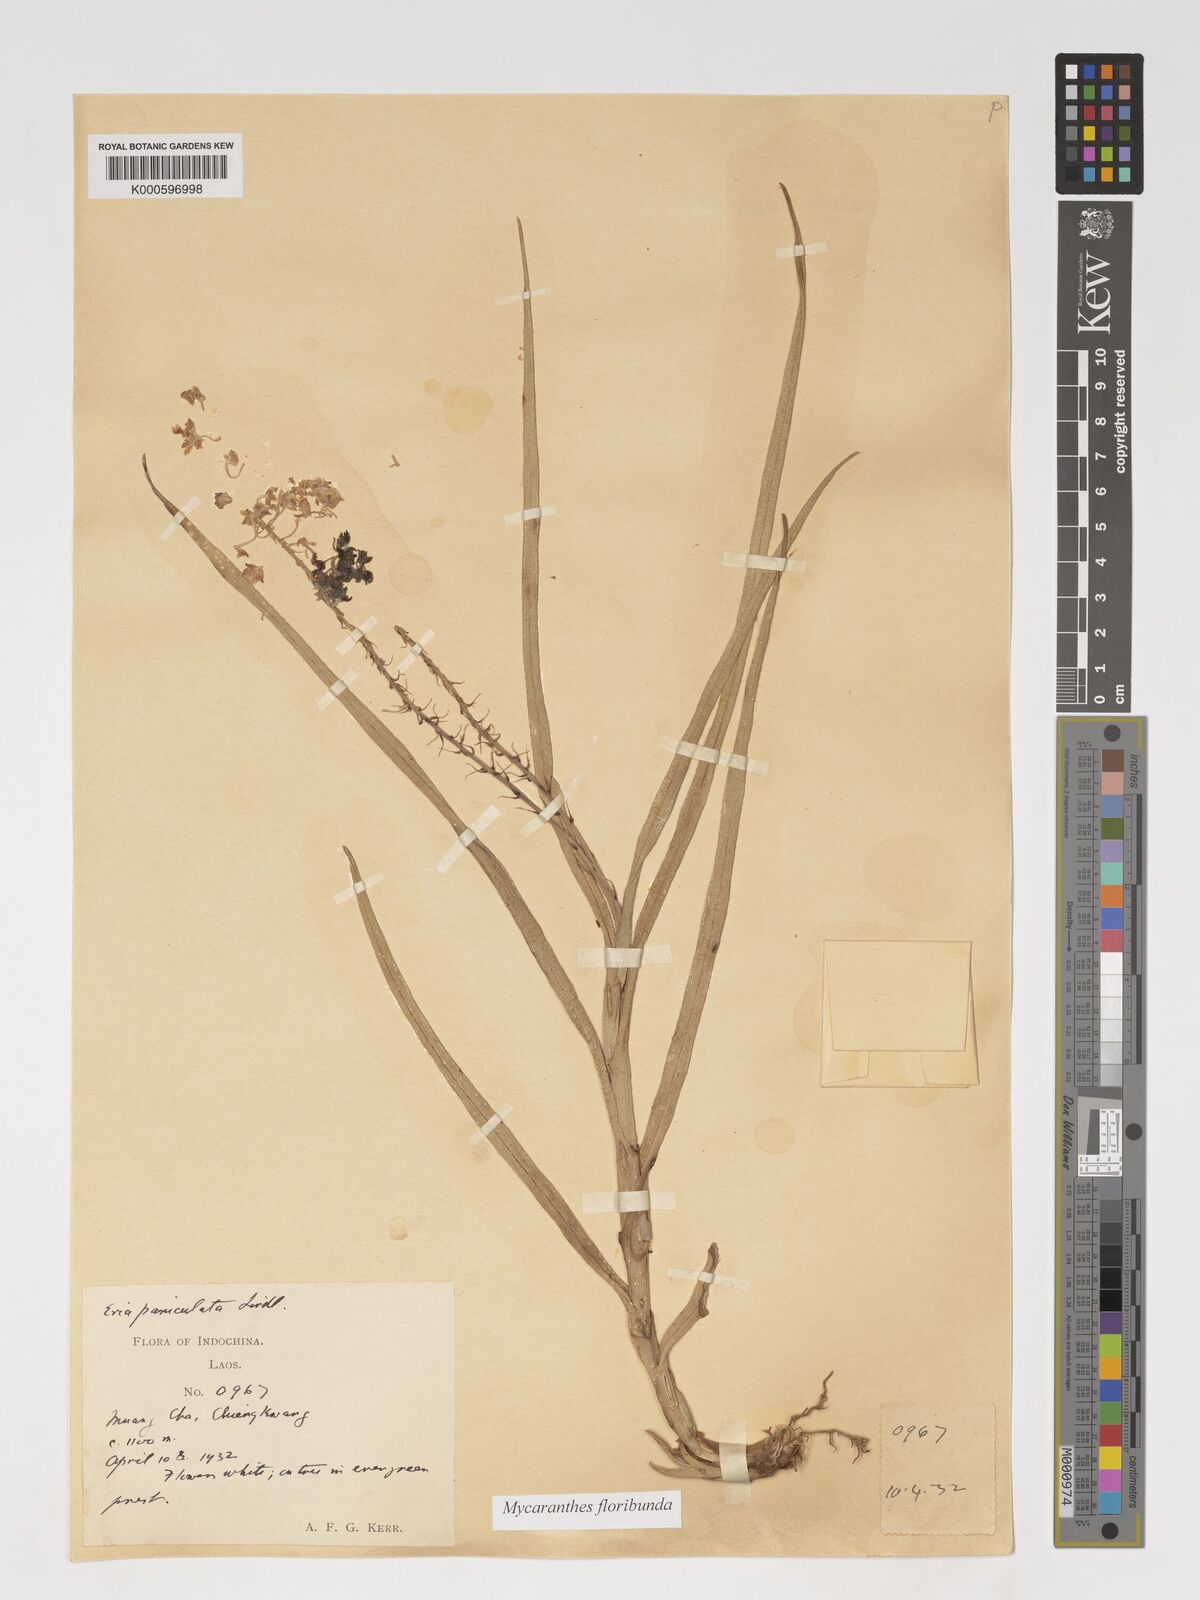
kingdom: Plantae
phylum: Tracheophyta
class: Liliopsida
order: Asparagales
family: Orchidaceae
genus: Mycaranthes
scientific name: Mycaranthes floribunda
